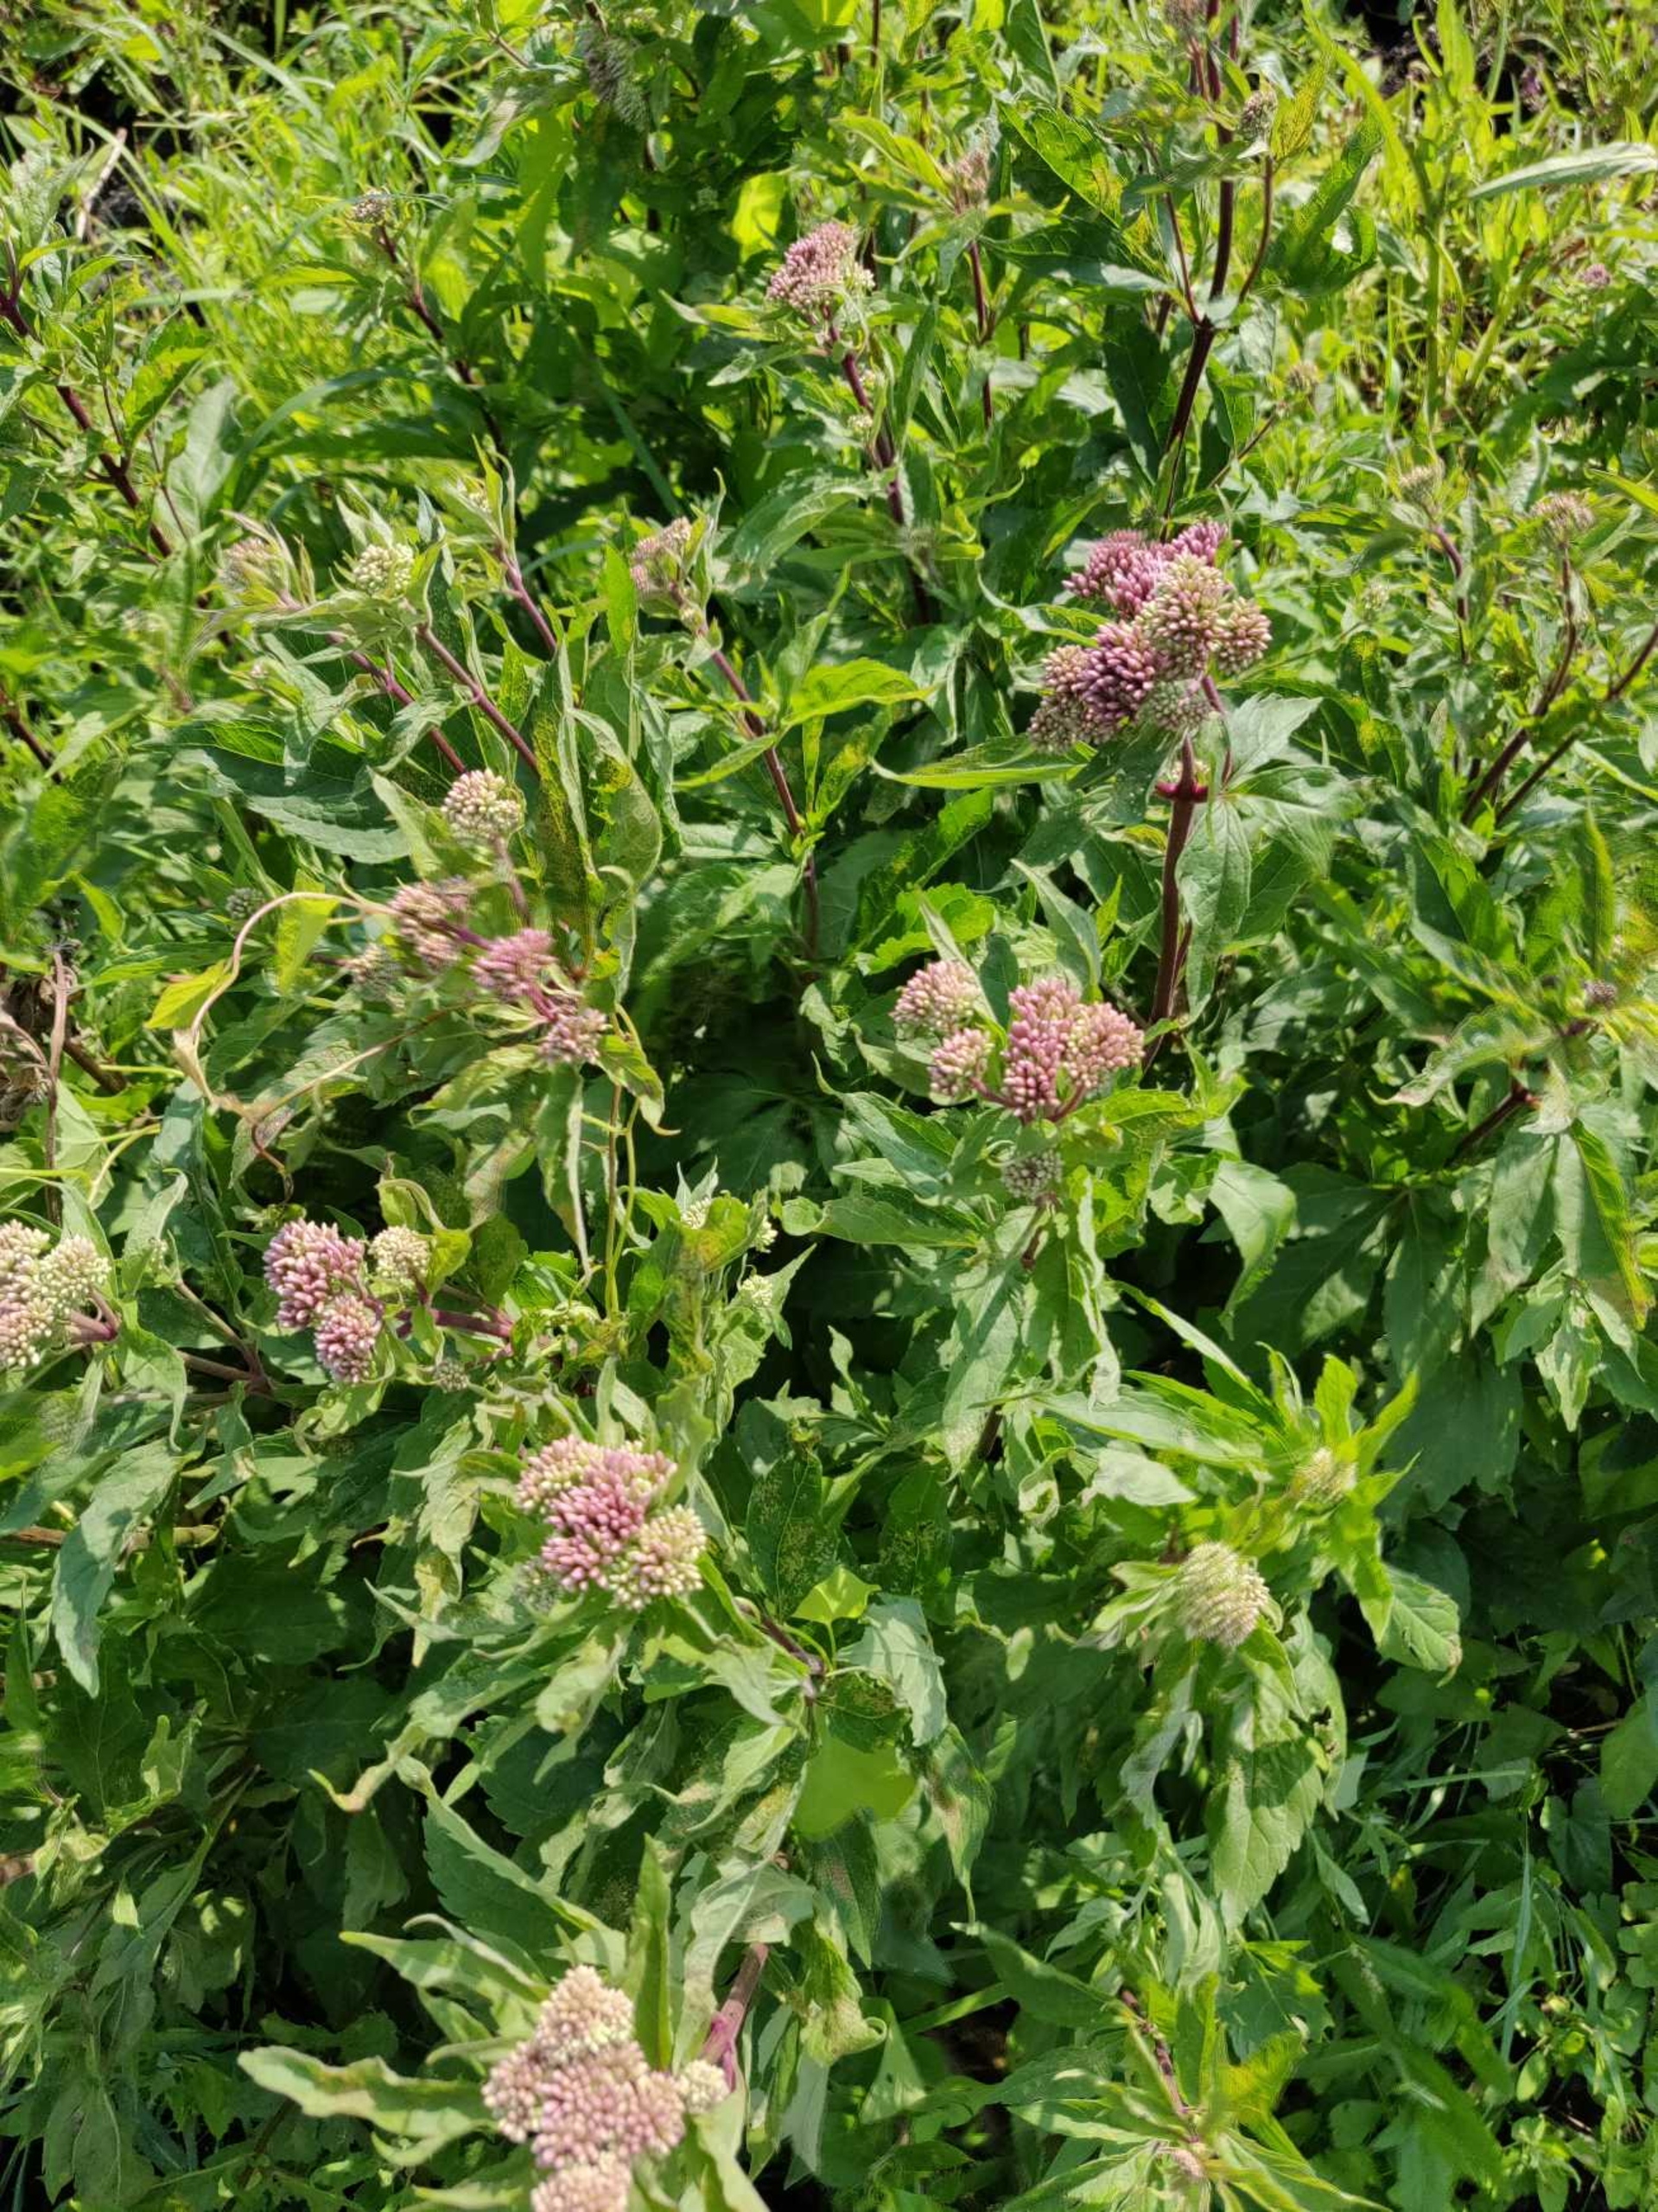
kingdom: Plantae
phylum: Tracheophyta
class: Magnoliopsida
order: Asterales
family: Asteraceae
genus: Eupatorium
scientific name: Eupatorium cannabinum
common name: Hjortetrøst
